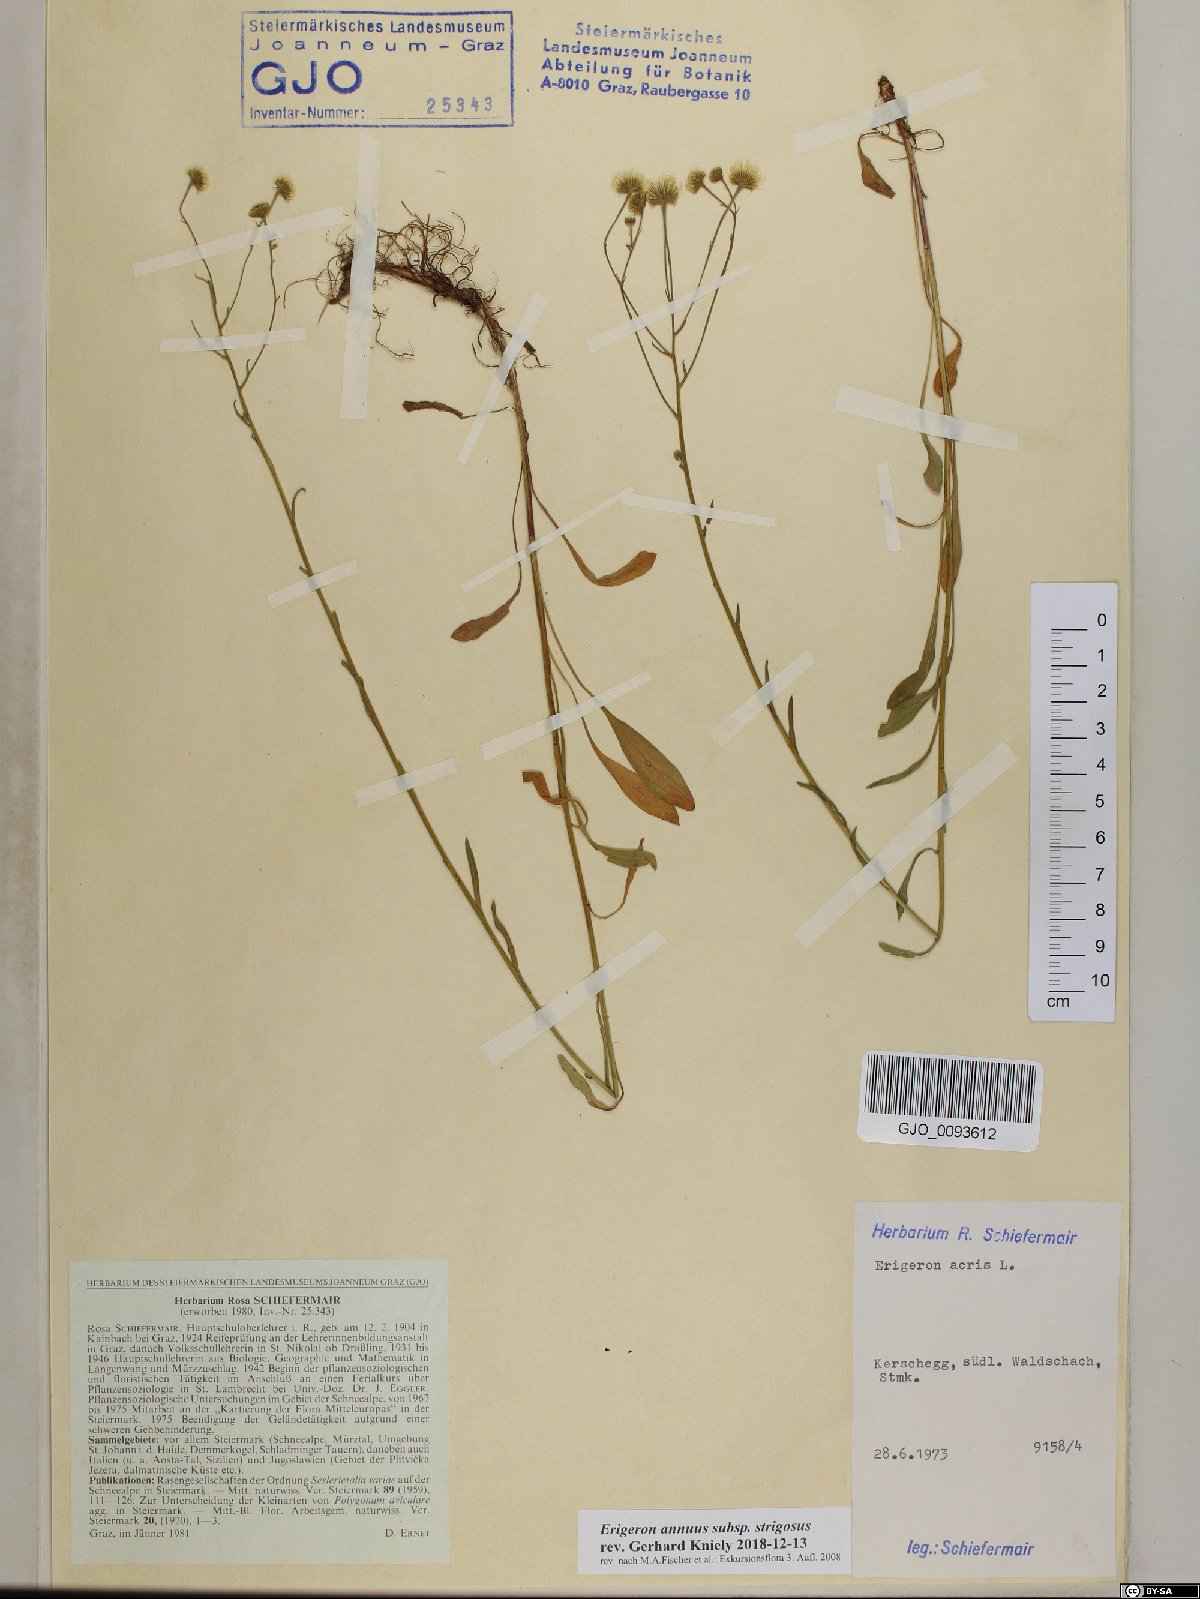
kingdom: Plantae
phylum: Tracheophyta
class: Magnoliopsida
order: Asterales
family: Asteraceae
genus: Erigeron
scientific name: Erigeron strigosus
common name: Common eastern fleabane
